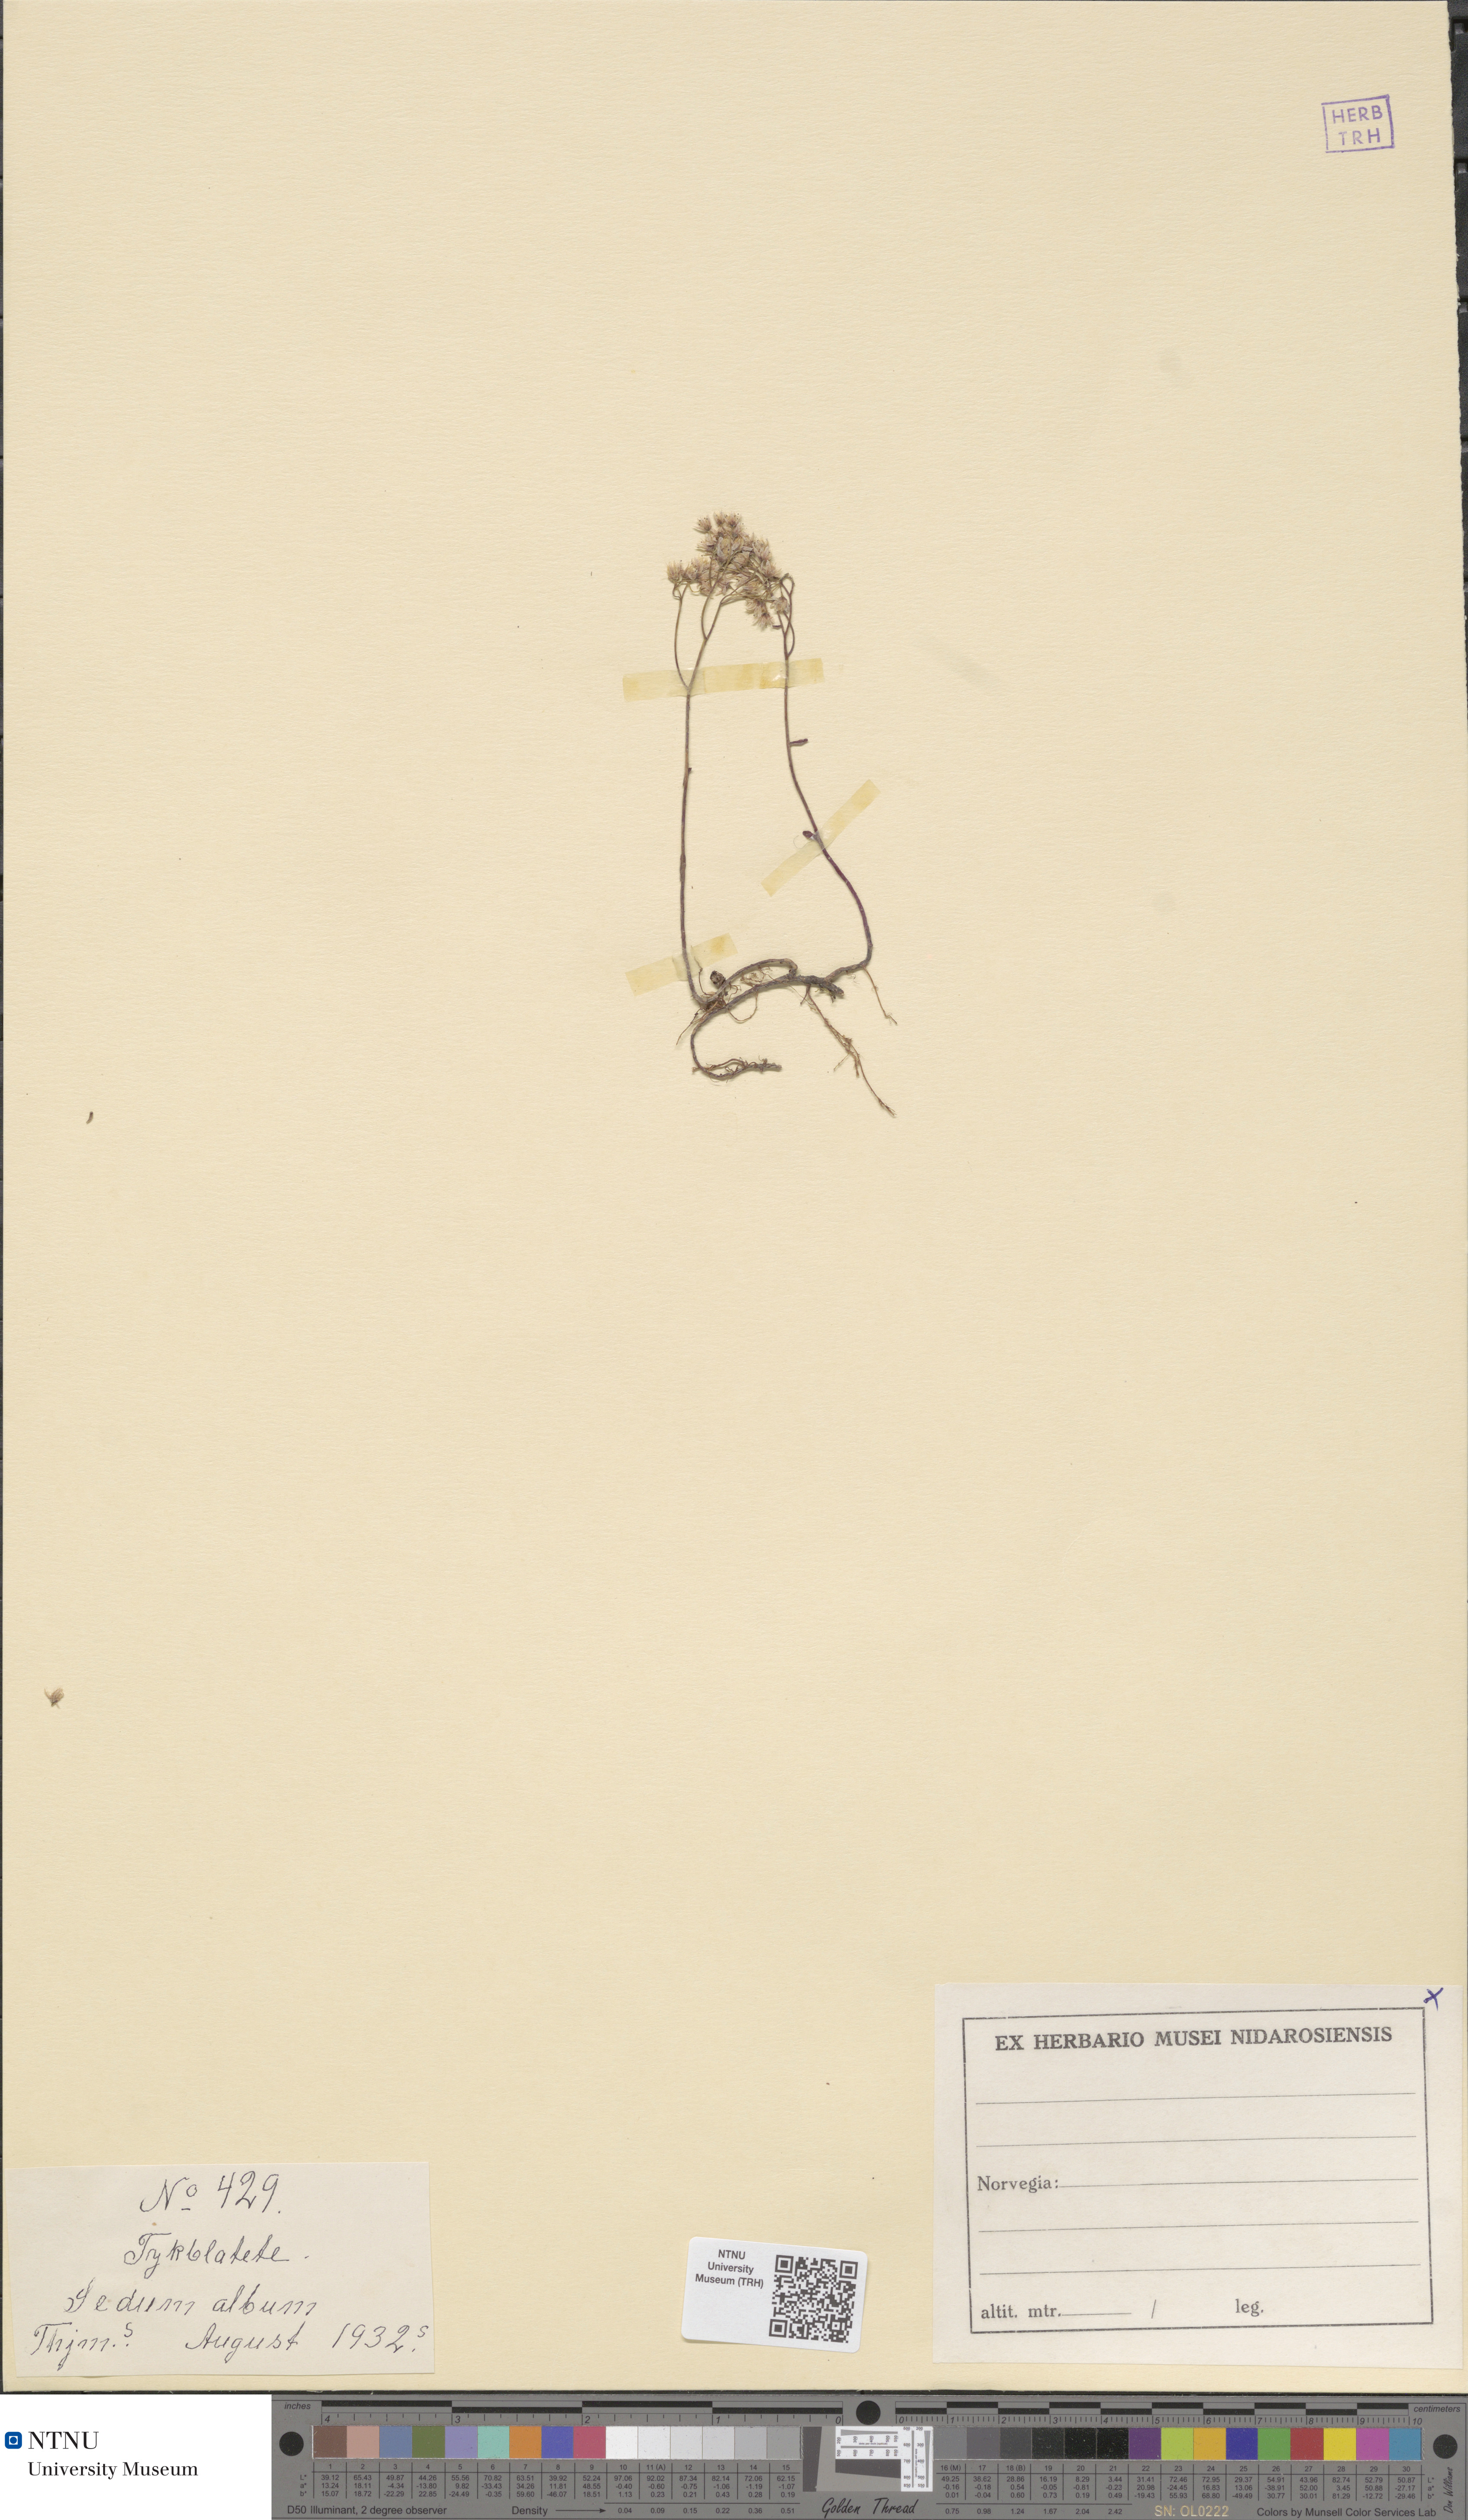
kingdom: Plantae
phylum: Tracheophyta
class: Magnoliopsida
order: Saxifragales
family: Crassulaceae
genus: Sedum
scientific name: Sedum album
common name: White stonecrop
